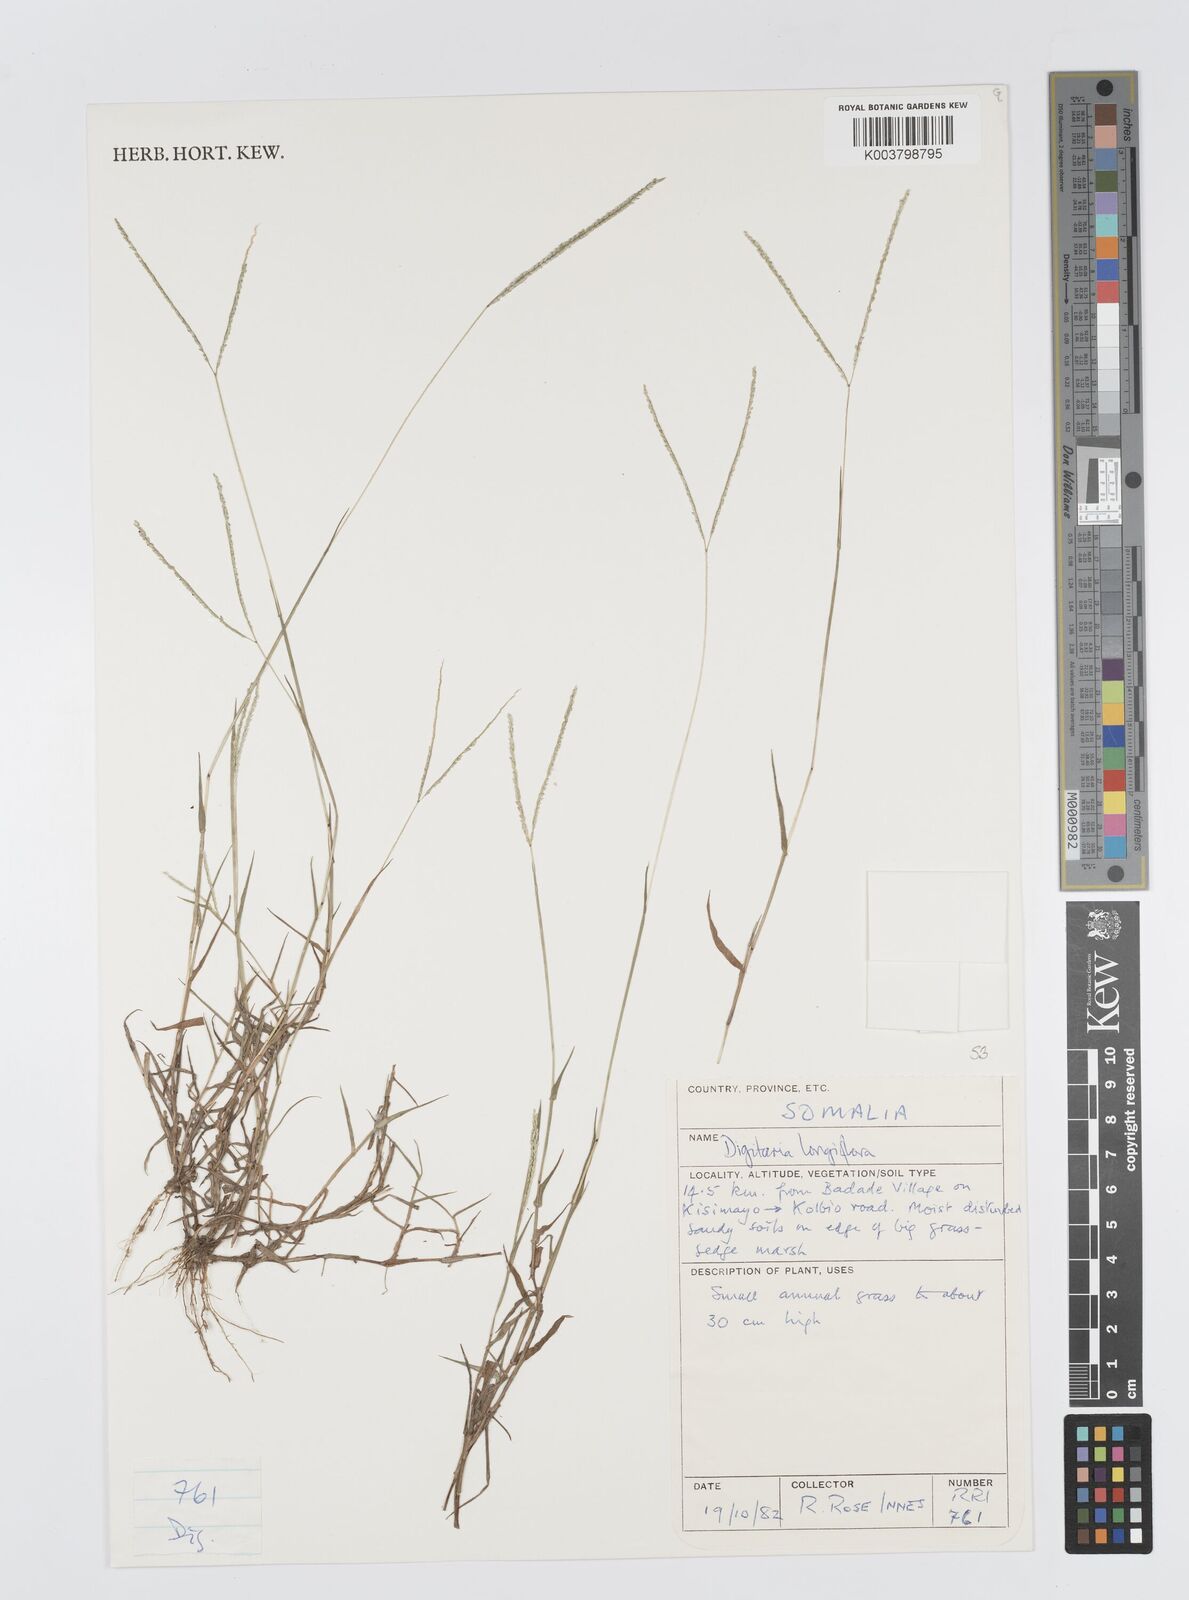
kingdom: Plantae
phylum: Tracheophyta
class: Liliopsida
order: Poales
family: Poaceae
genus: Digitaria
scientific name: Digitaria longiflora
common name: Wire crabgrass
